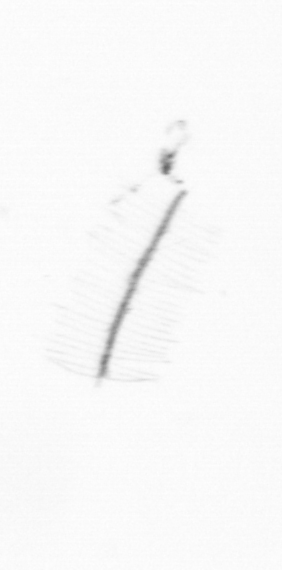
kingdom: Chromista
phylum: Ochrophyta
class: Bacillariophyceae
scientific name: Bacillariophyceae
